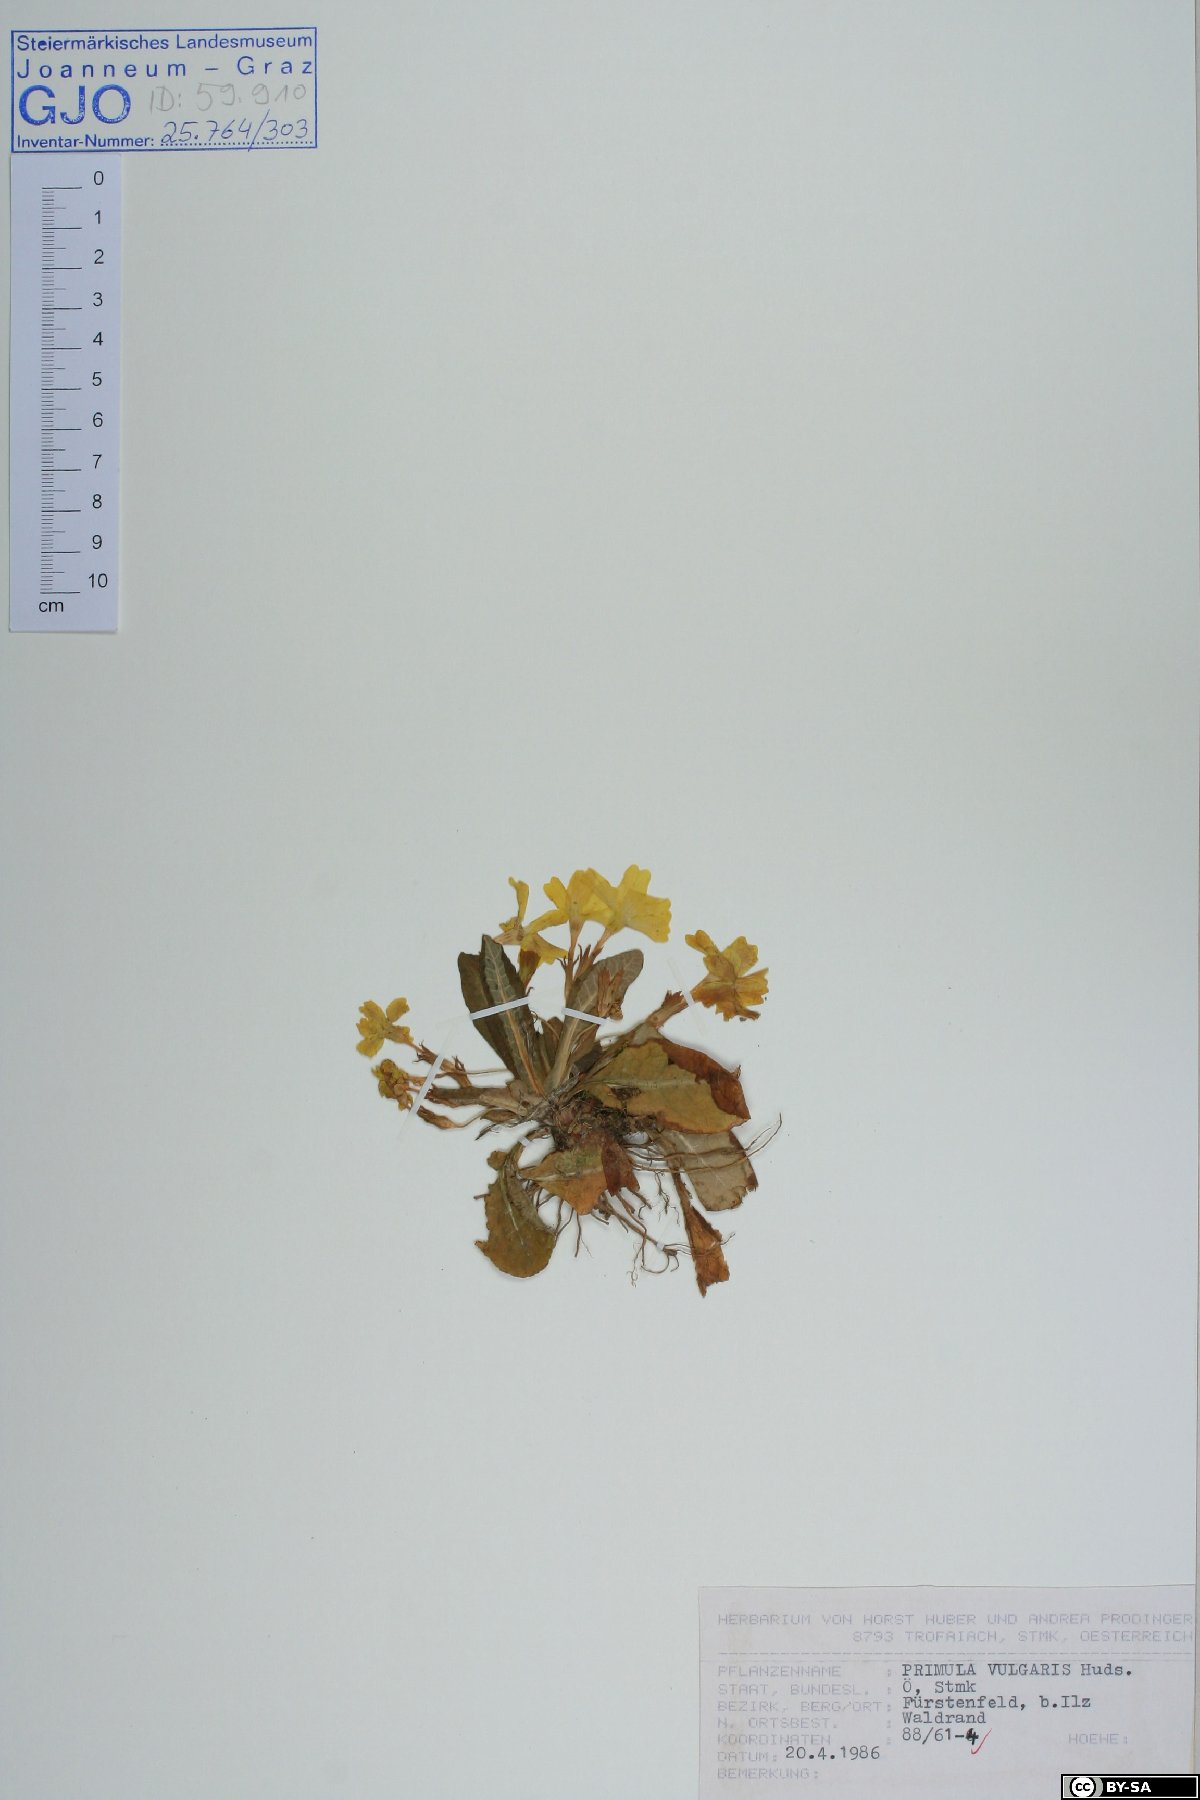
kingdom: Plantae
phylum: Tracheophyta
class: Magnoliopsida
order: Ericales
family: Primulaceae
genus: Primula
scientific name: Primula vulgaris
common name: Primrose
